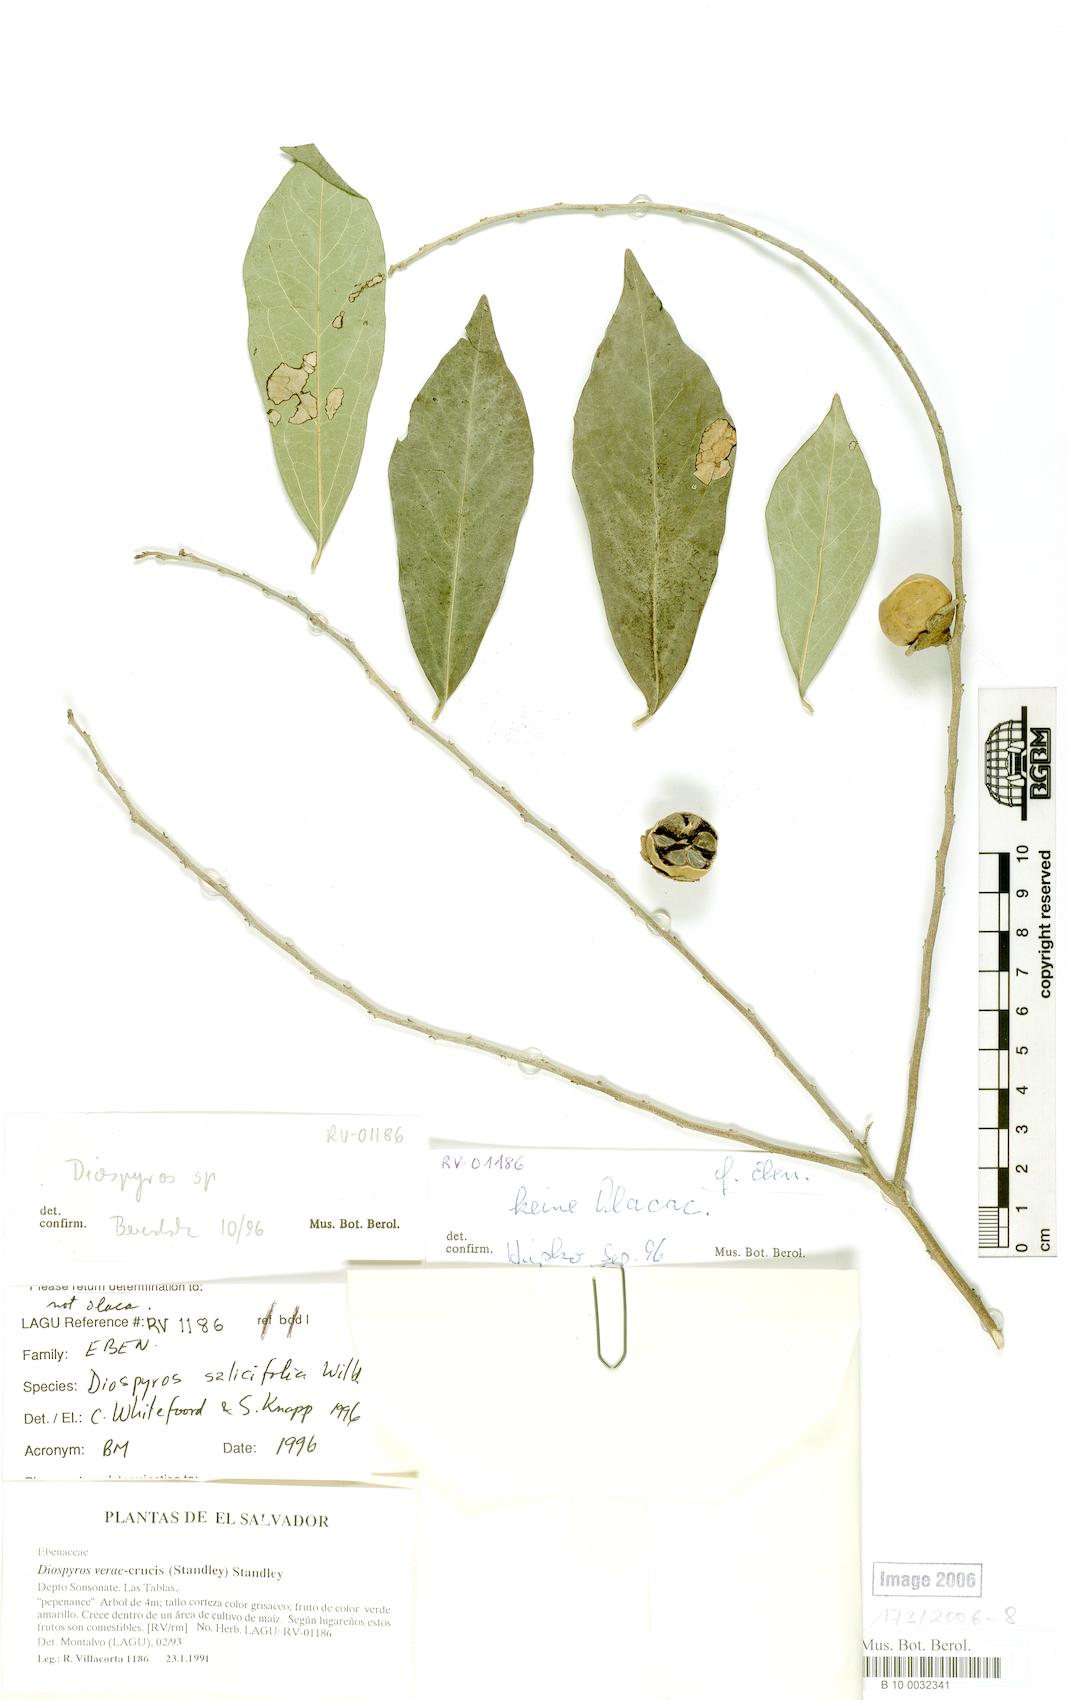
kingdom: Plantae
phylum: Tracheophyta
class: Magnoliopsida
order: Ericales
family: Ebenaceae
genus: Diospyros
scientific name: Diospyros salicifolia
